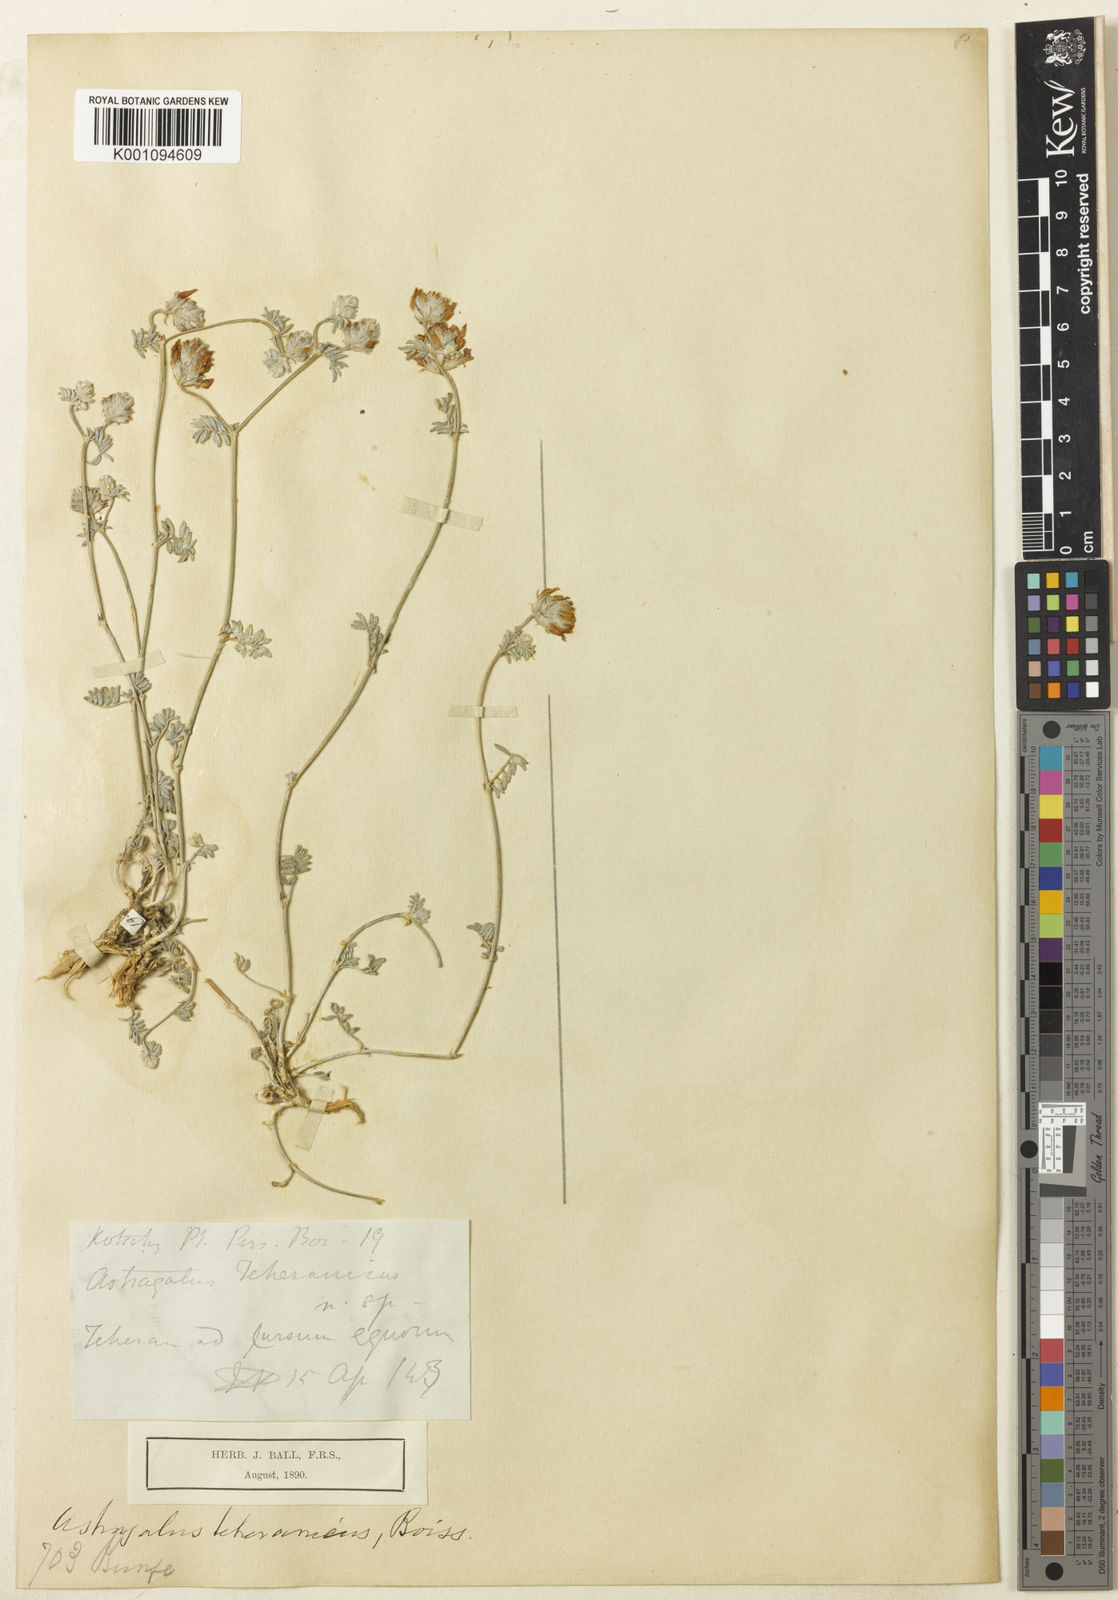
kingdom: Plantae
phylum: Tracheophyta
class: Magnoliopsida
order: Fabales
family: Fabaceae
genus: Astragalus
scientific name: Astragalus
